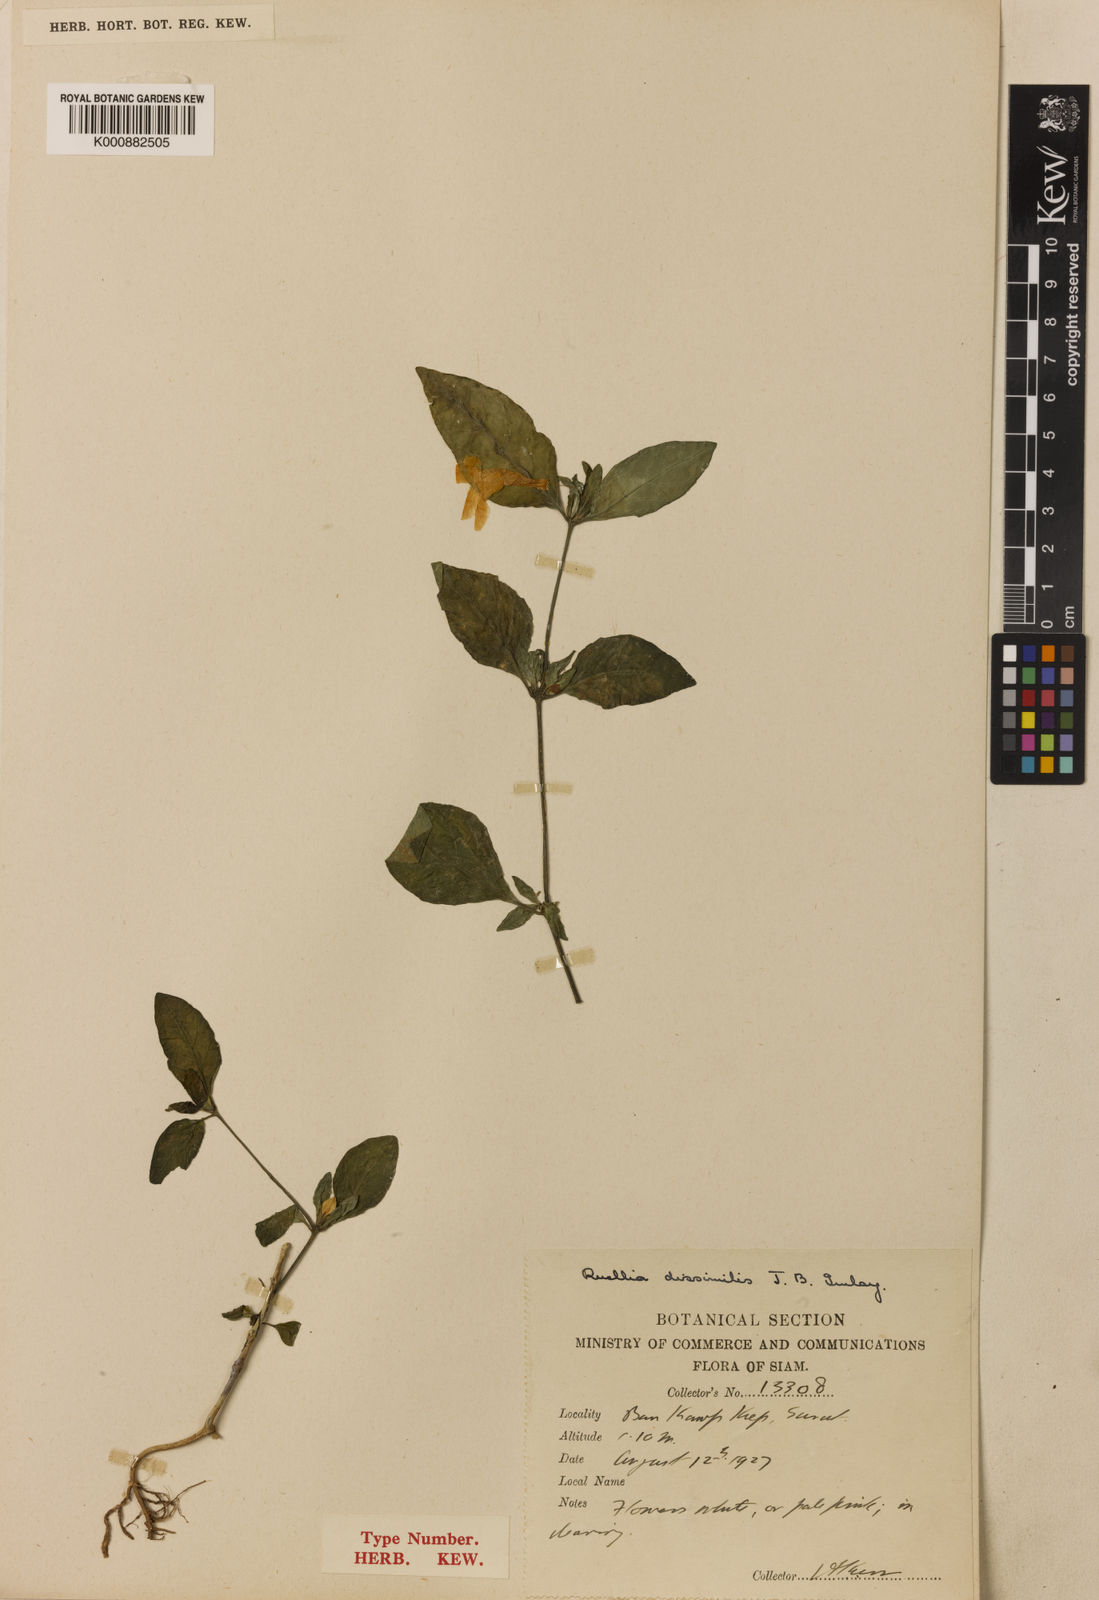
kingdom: Plantae
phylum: Tracheophyta
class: Magnoliopsida
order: Lamiales
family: Acanthaceae
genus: Ruellia
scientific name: Ruellia repens
